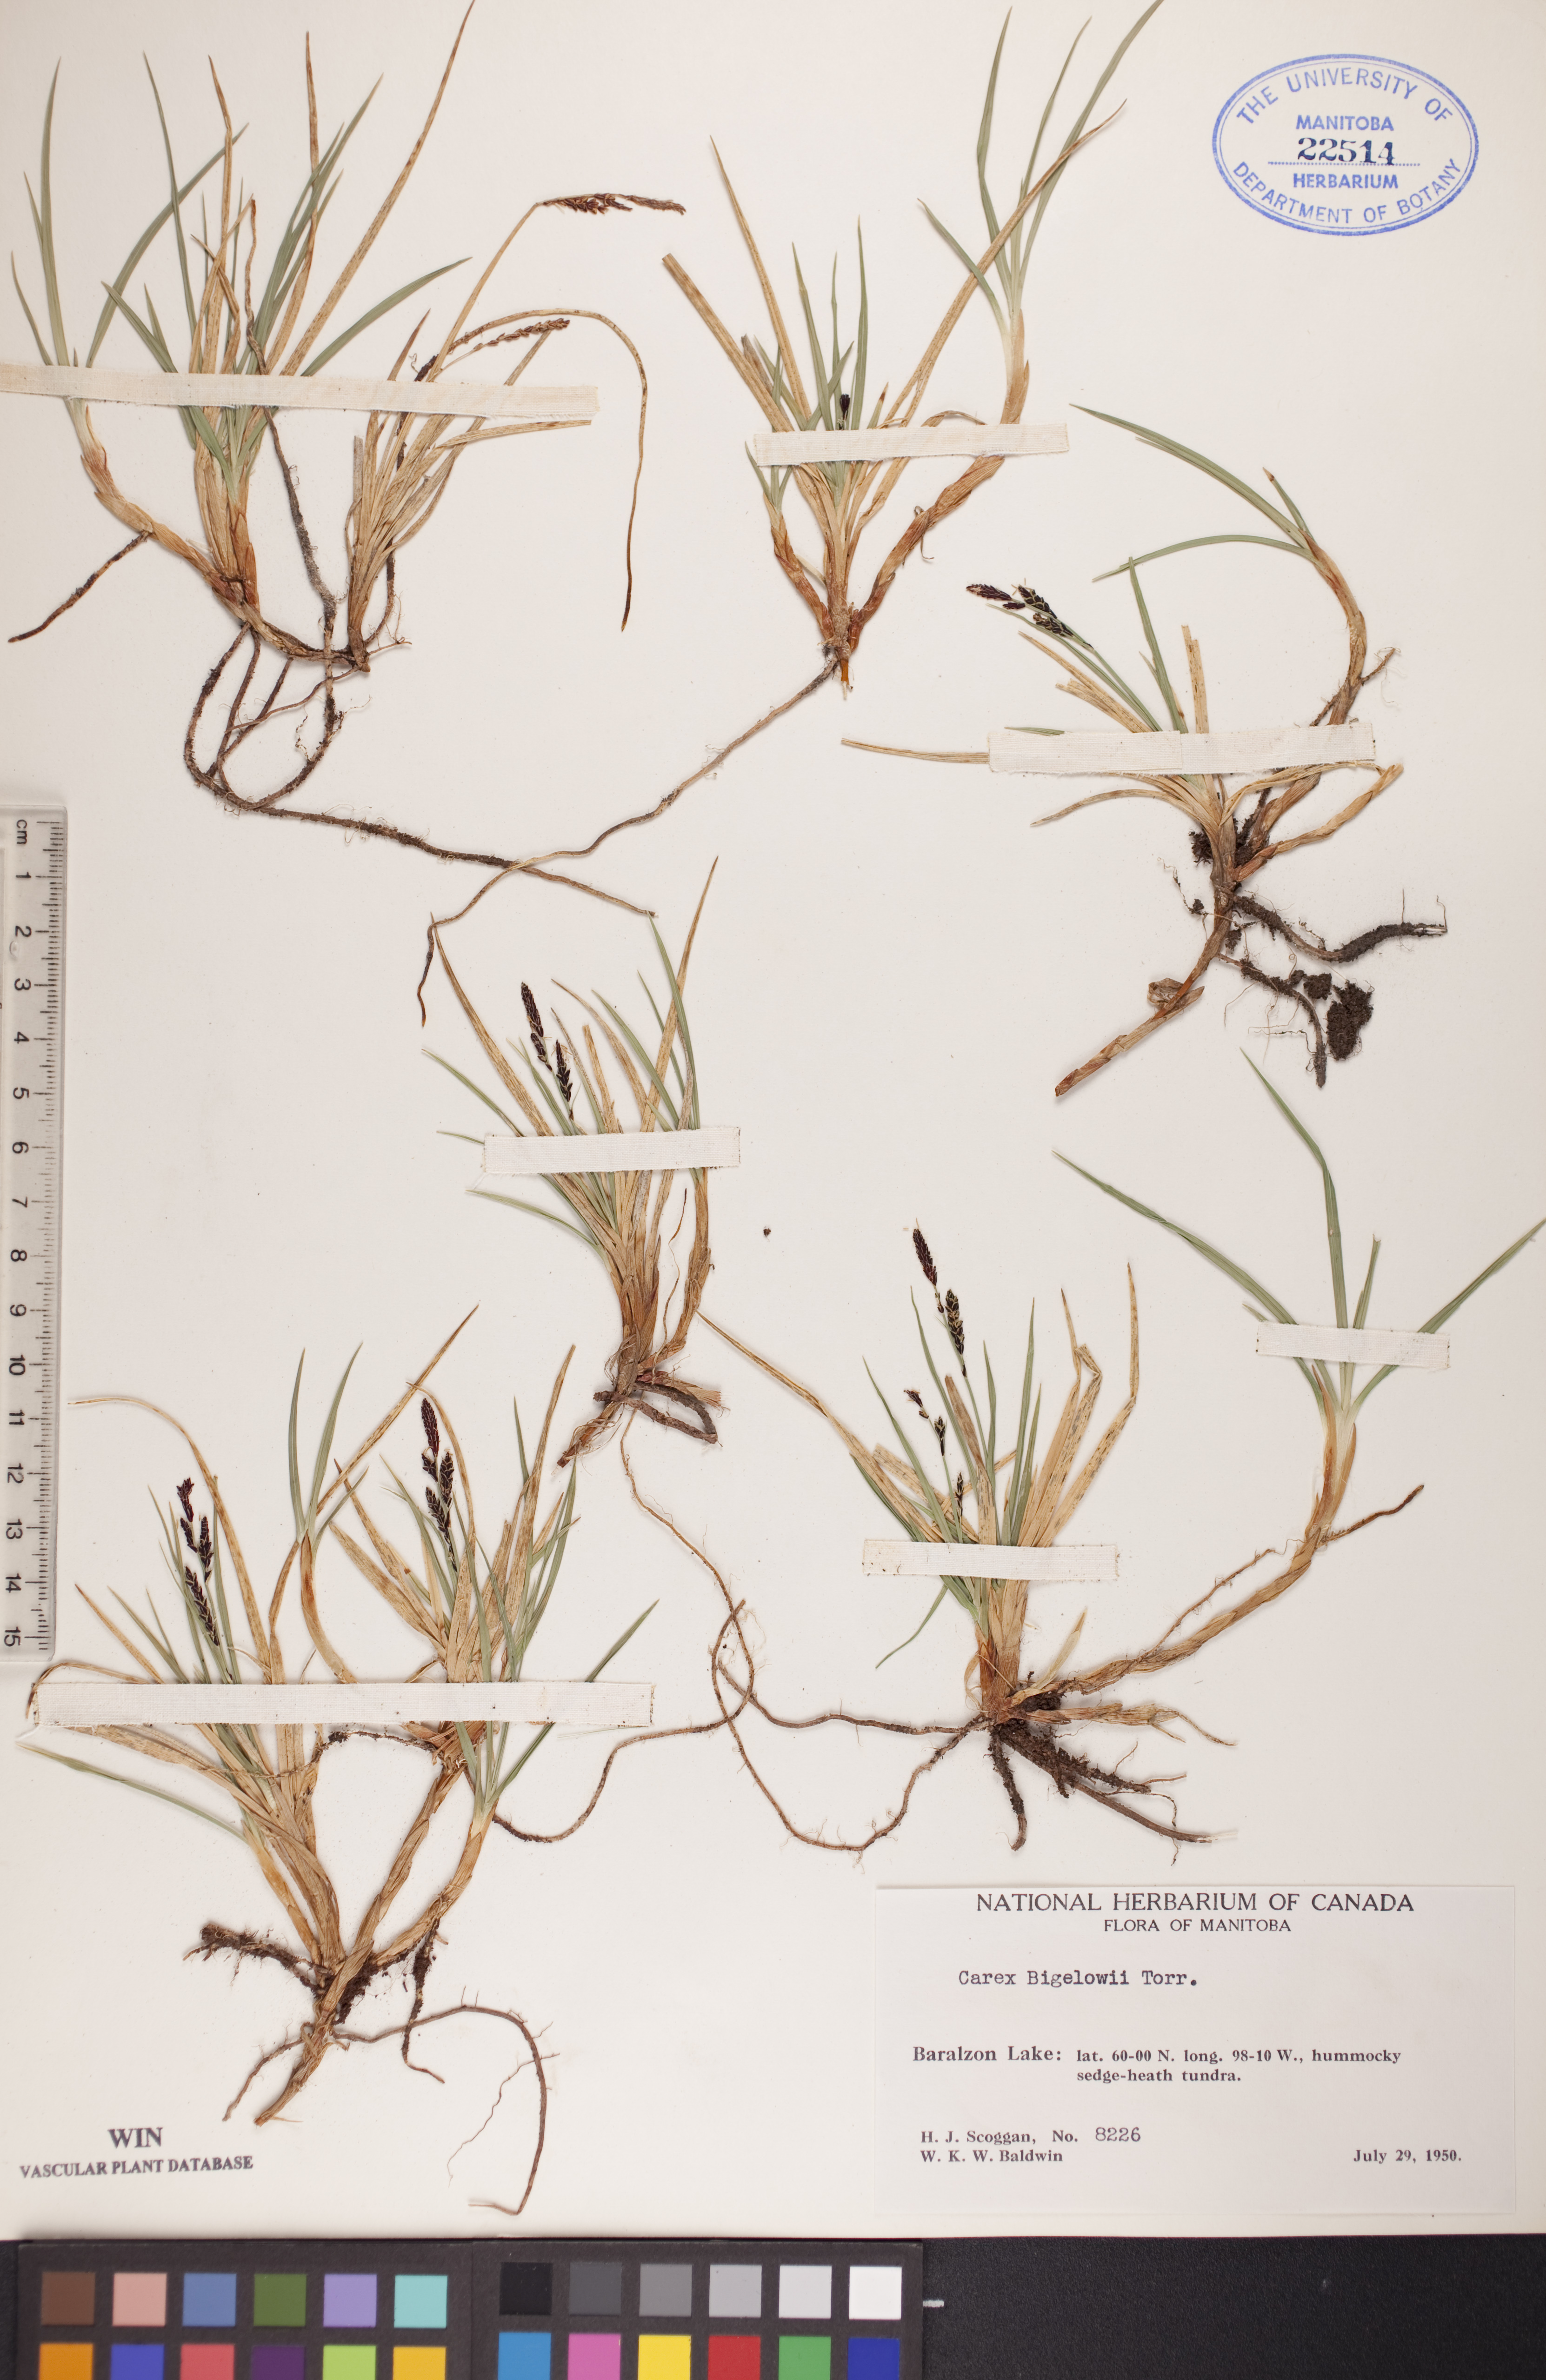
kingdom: Plantae
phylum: Tracheophyta
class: Liliopsida
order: Poales
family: Cyperaceae
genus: Carex
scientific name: Carex bigelowii
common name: Stiff sedge
